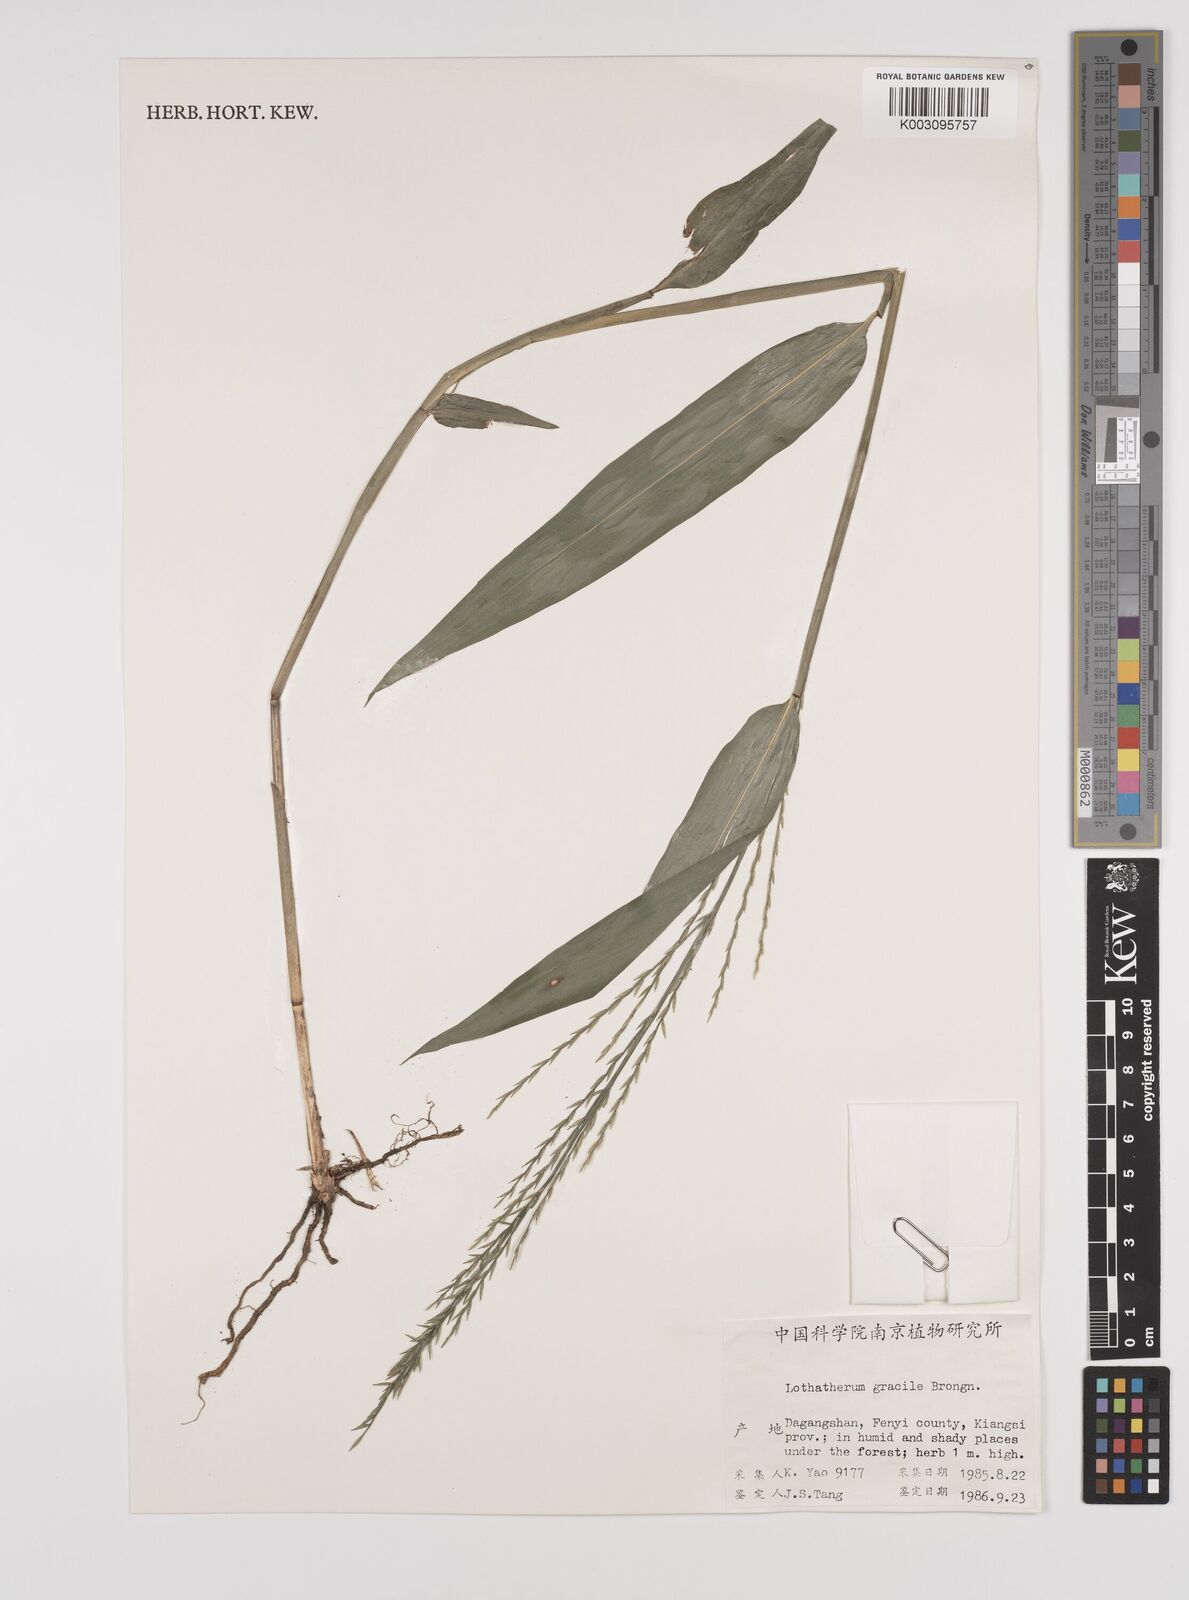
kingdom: Plantae
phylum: Tracheophyta
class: Liliopsida
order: Poales
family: Poaceae
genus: Lophatherum
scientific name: Lophatherum gracile
